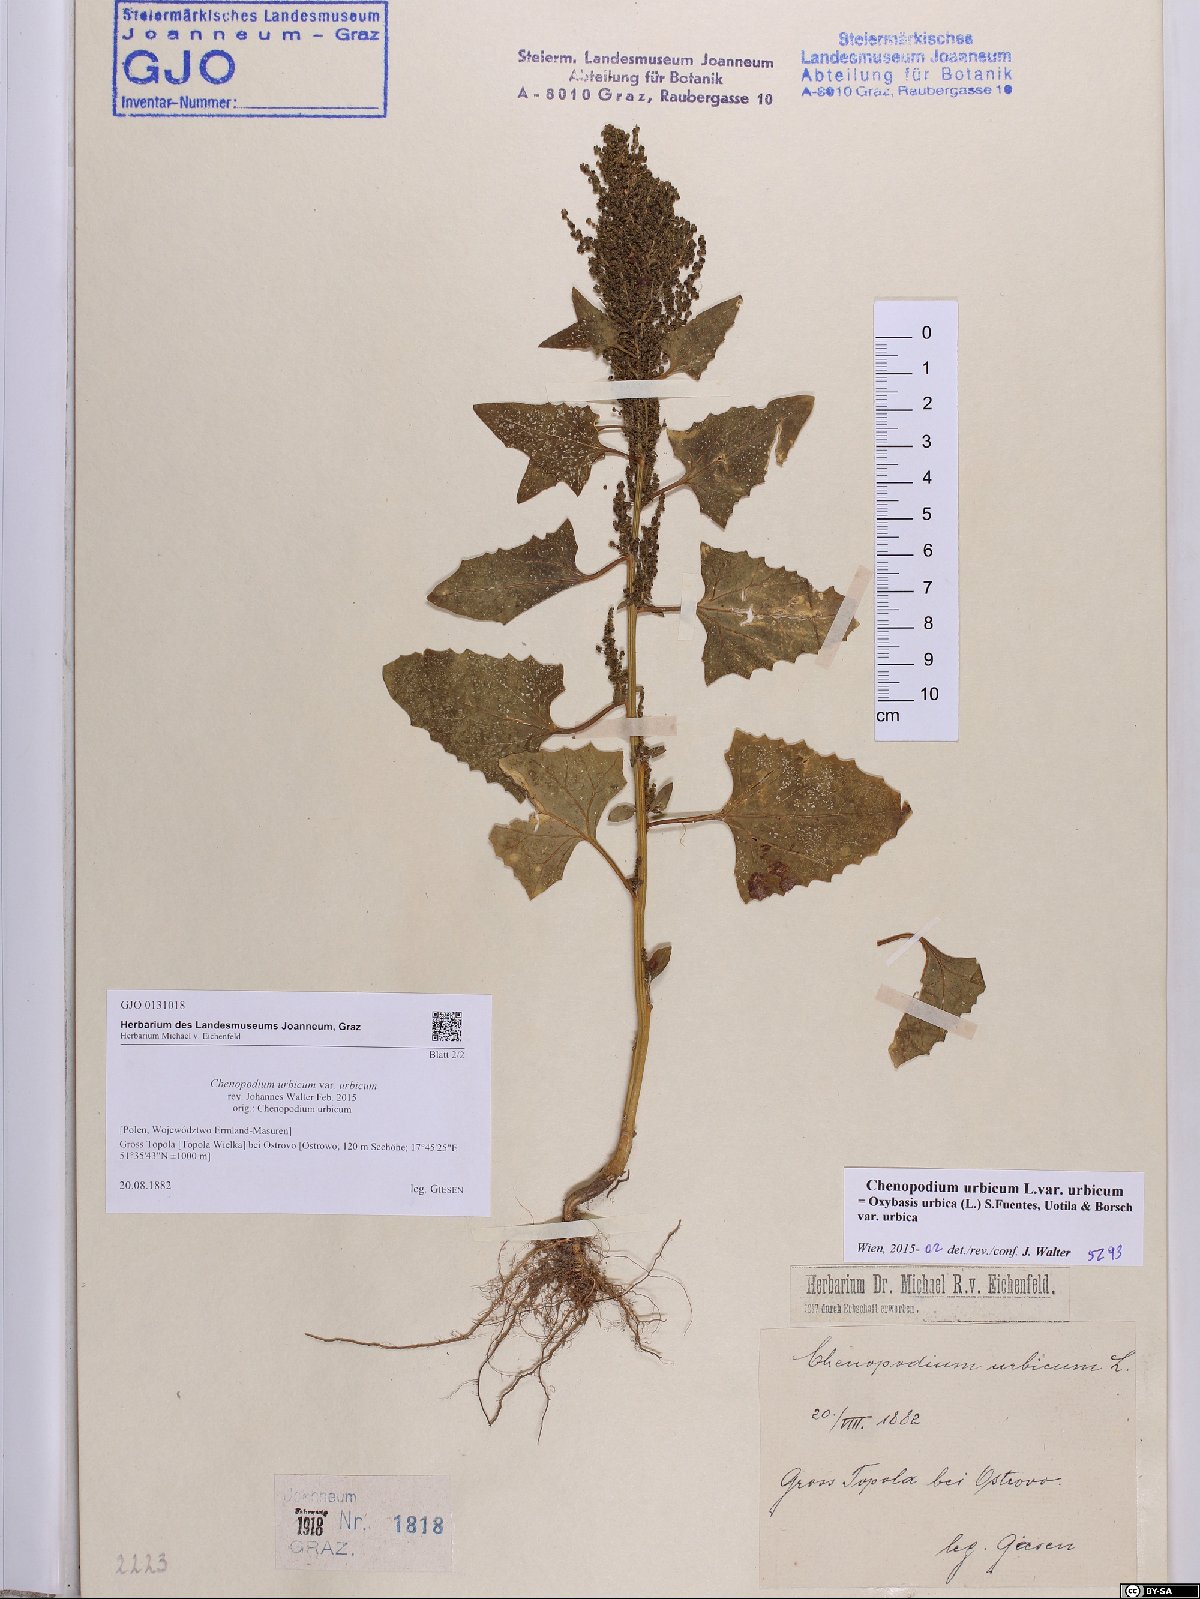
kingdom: Plantae
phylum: Tracheophyta
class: Magnoliopsida
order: Caryophyllales
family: Amaranthaceae
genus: Oxybasis
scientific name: Oxybasis urbica
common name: City goosefoot
